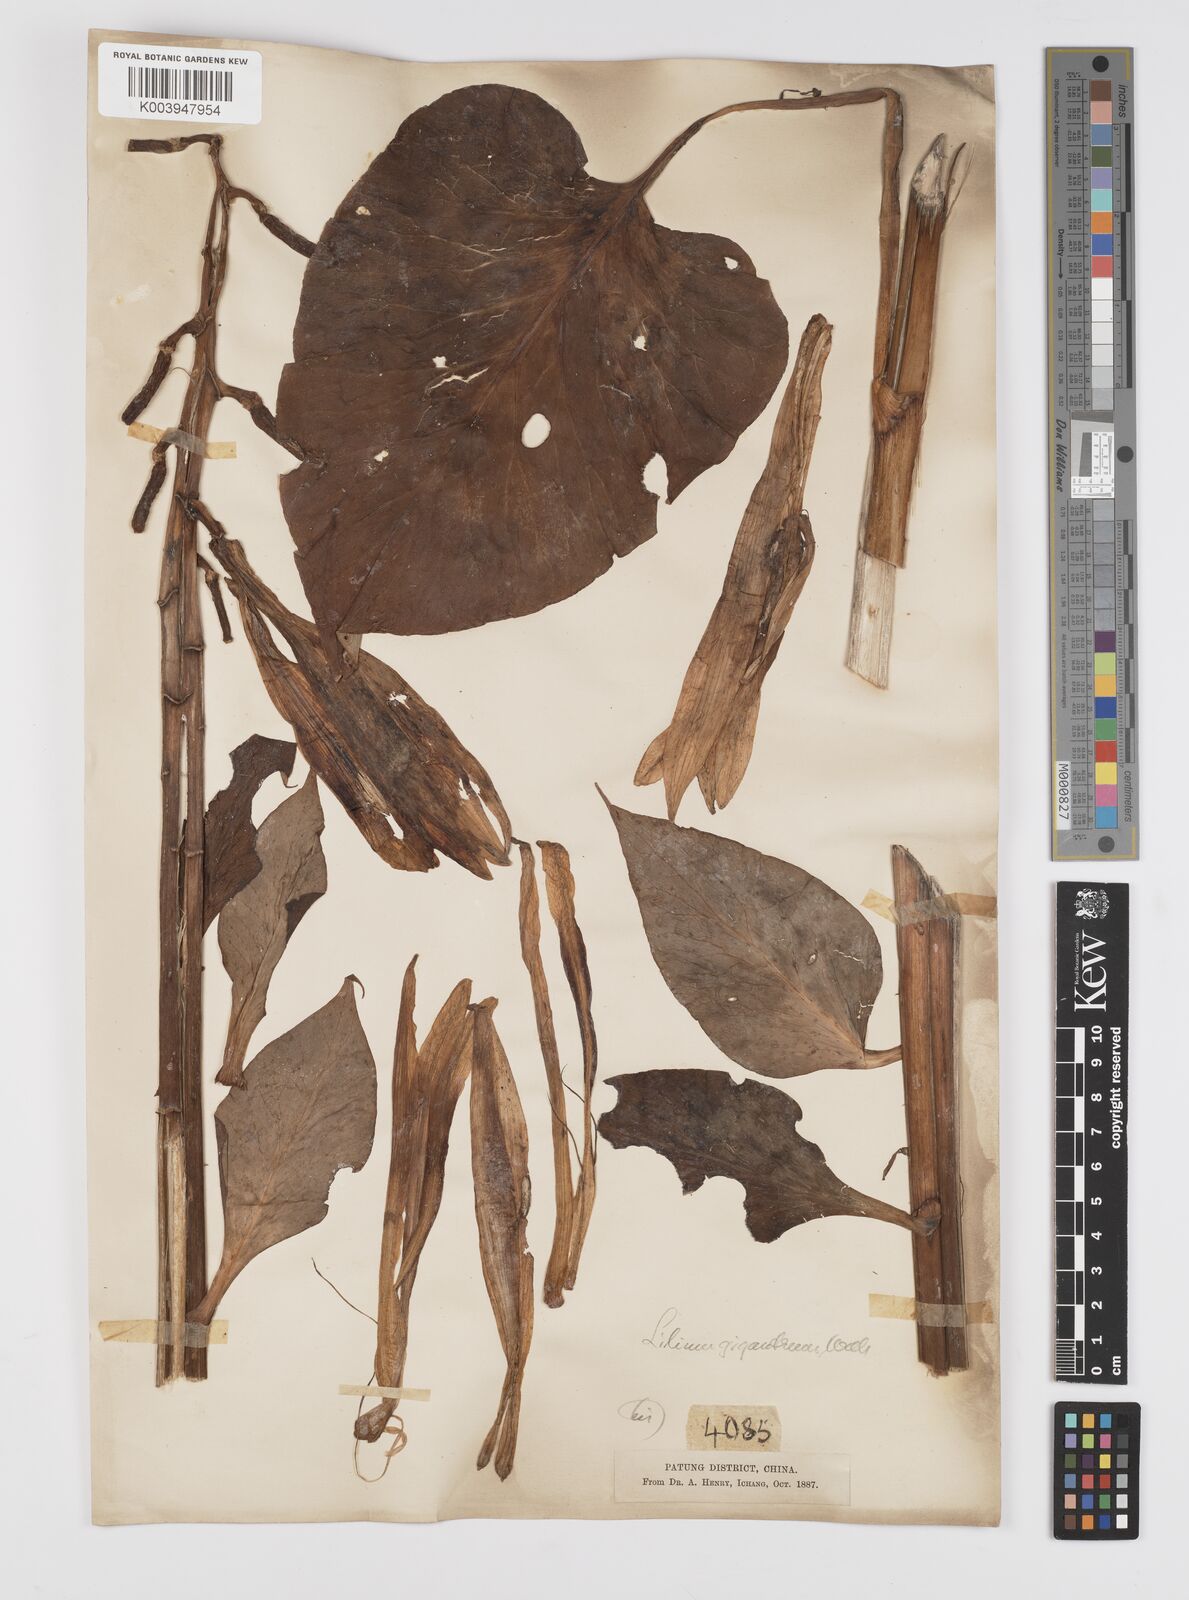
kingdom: Plantae
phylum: Tracheophyta
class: Liliopsida
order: Liliales
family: Liliaceae
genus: Cardiocrinum
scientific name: Cardiocrinum giganteum
